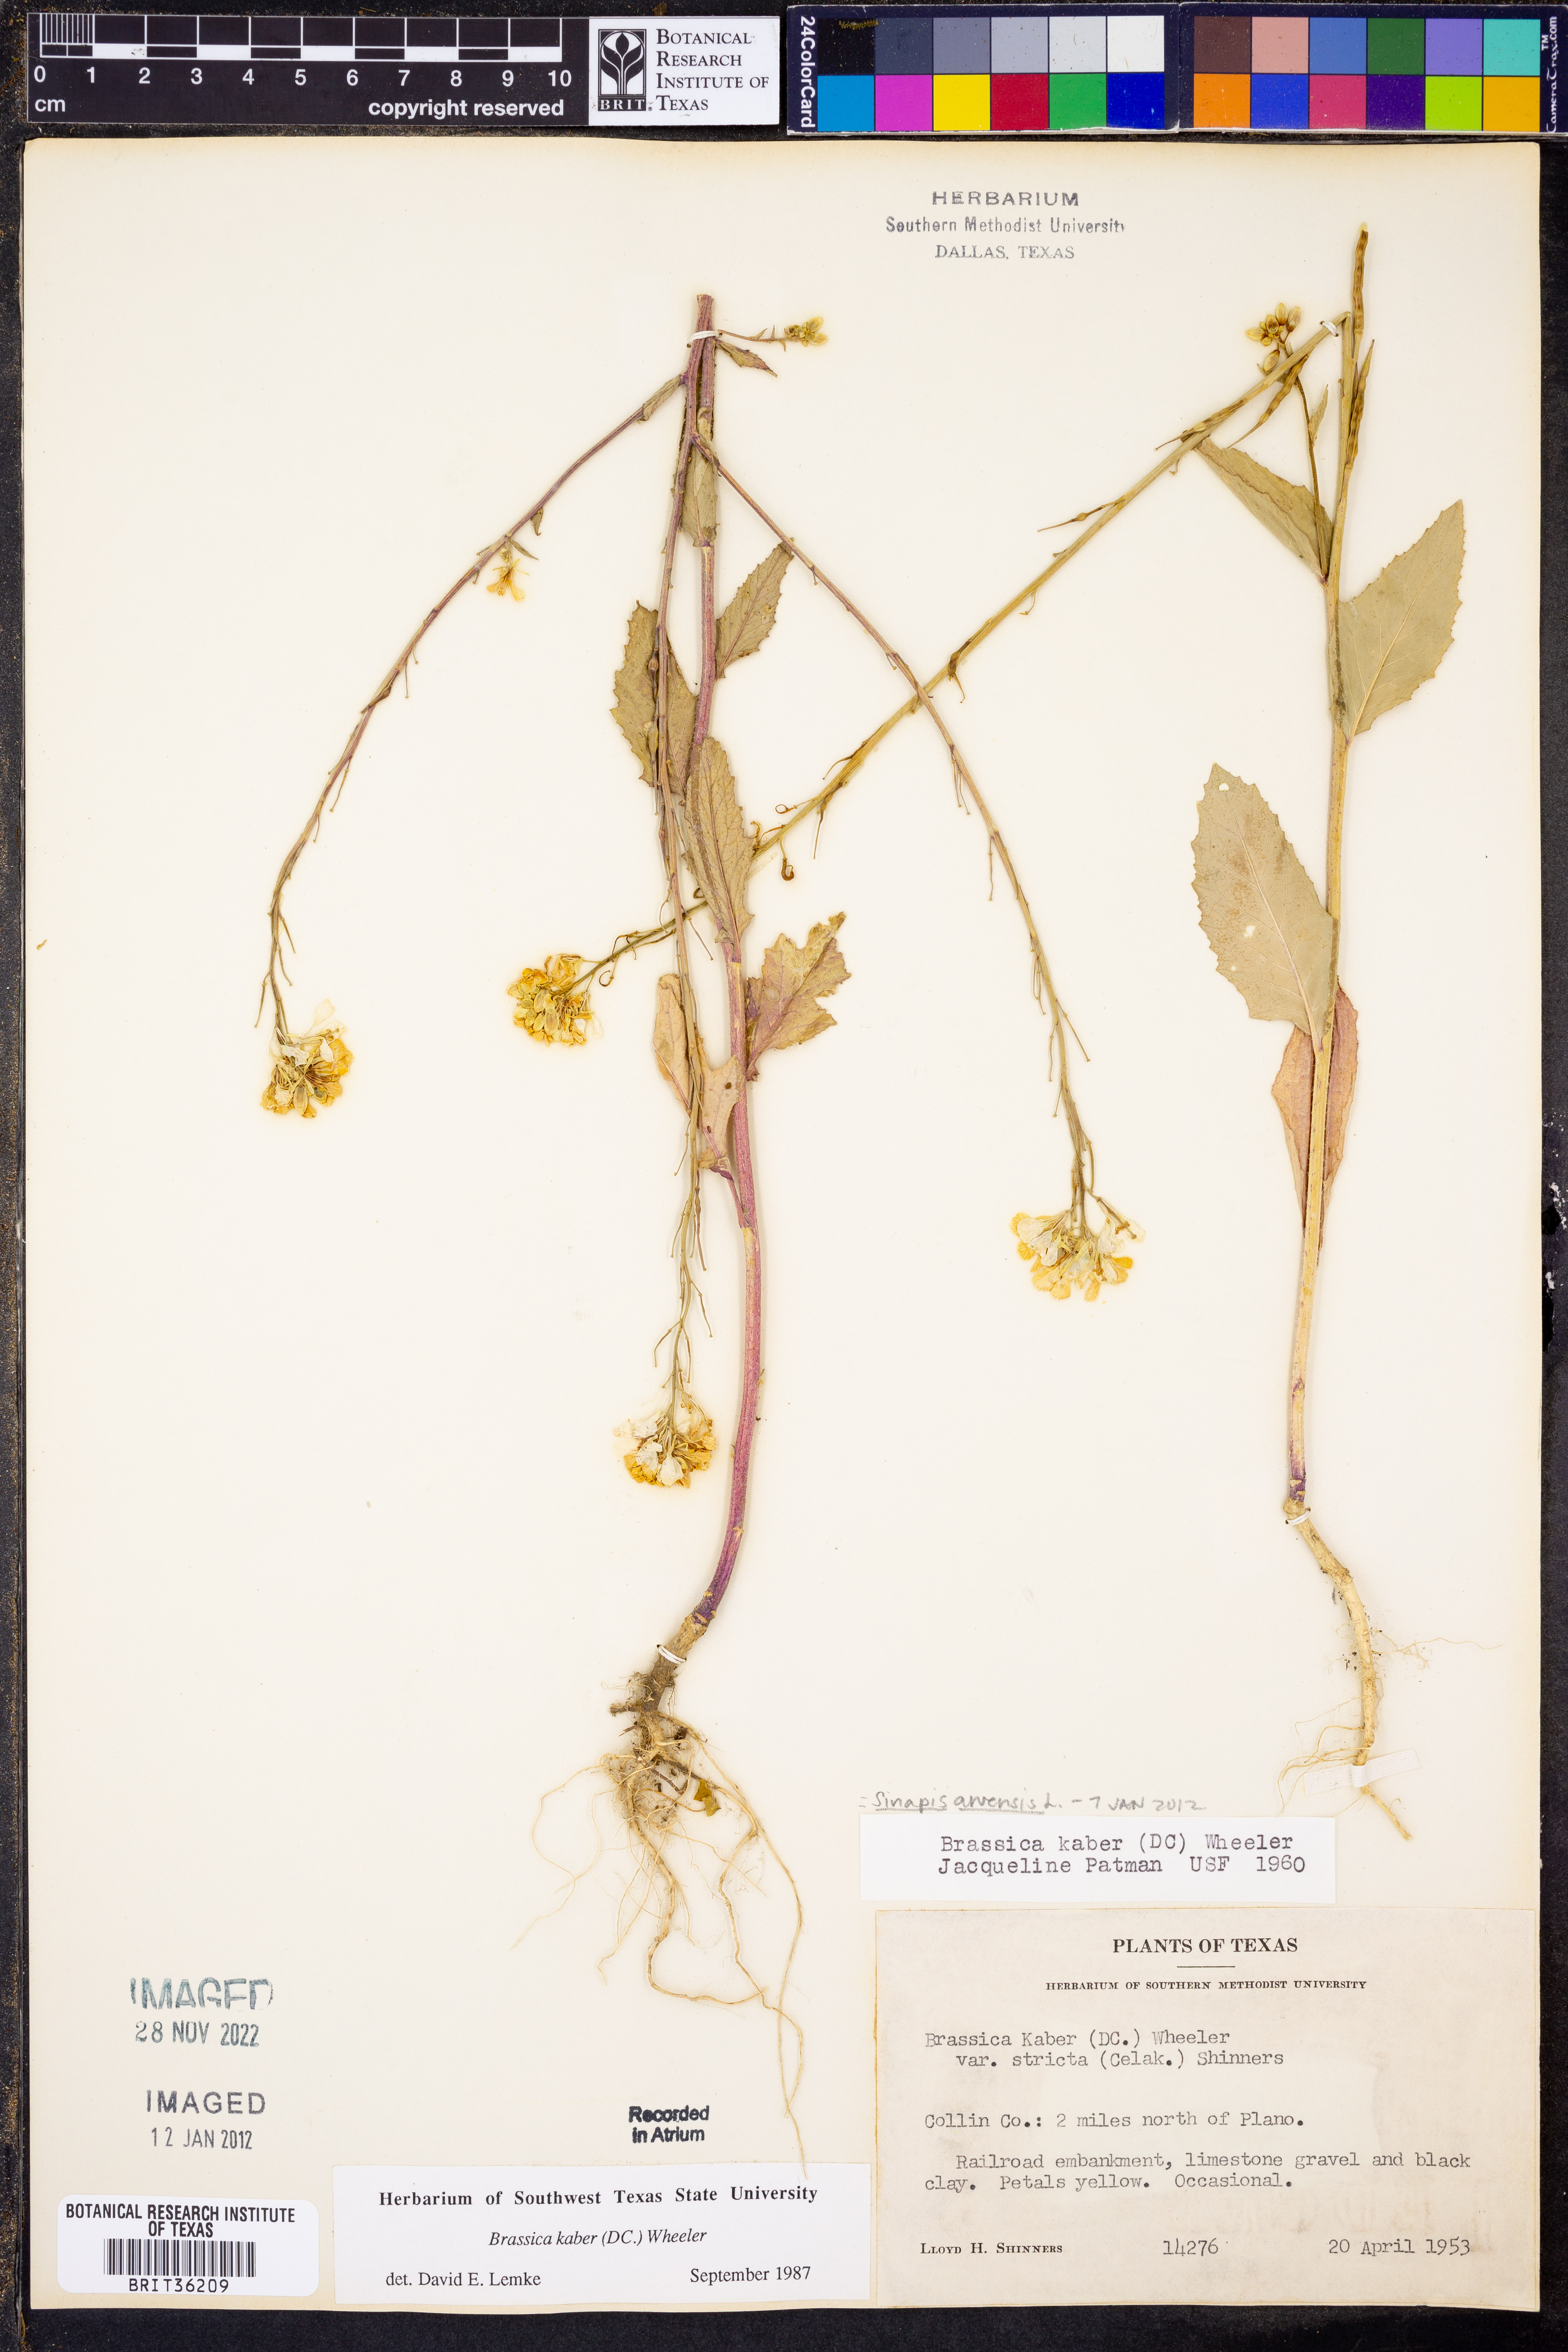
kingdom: Plantae
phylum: Tracheophyta
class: Magnoliopsida
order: Brassicales
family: Brassicaceae
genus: Sinapis
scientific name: Sinapis arvensis
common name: Charlock
